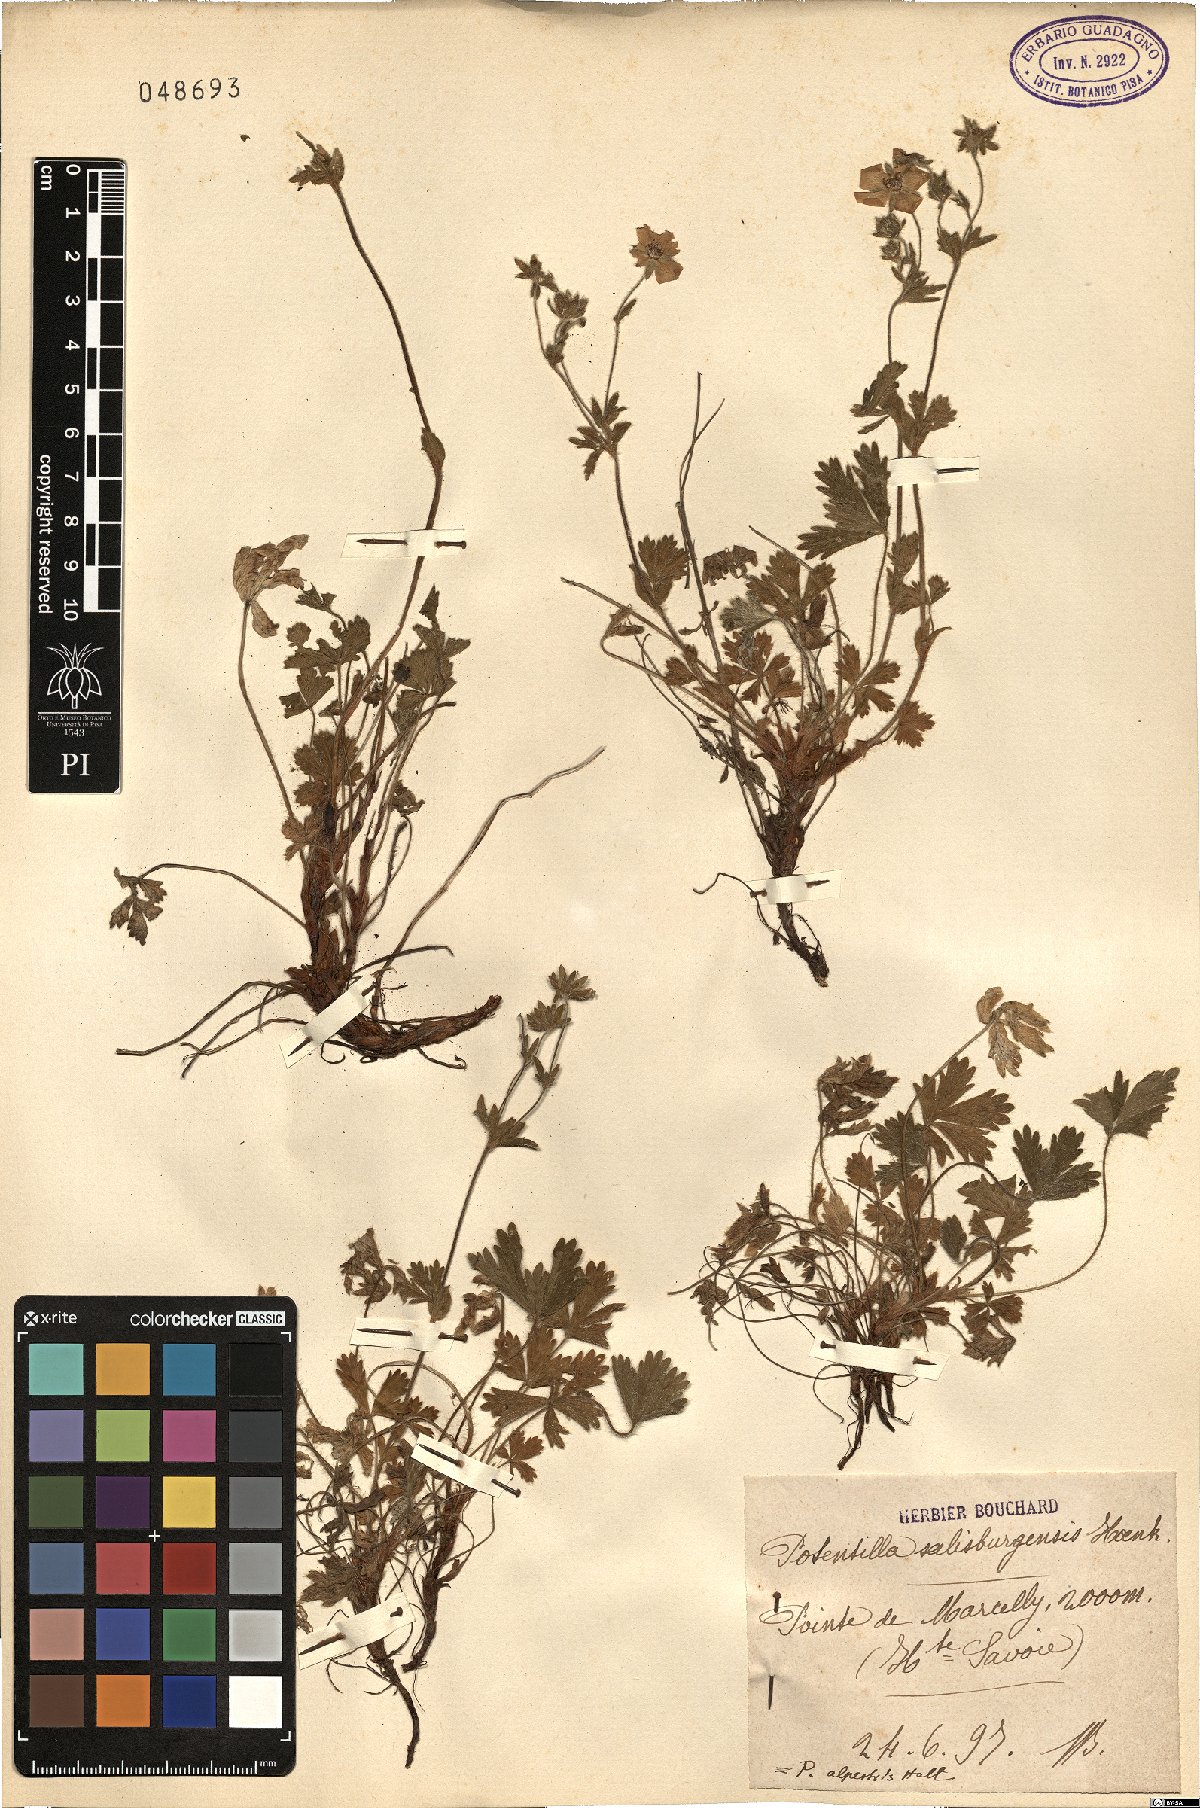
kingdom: Plantae
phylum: Tracheophyta
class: Magnoliopsida
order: Rosales
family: Rosaceae
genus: Potentilla
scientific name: Potentilla crantzii
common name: Alpine cinquefoil
